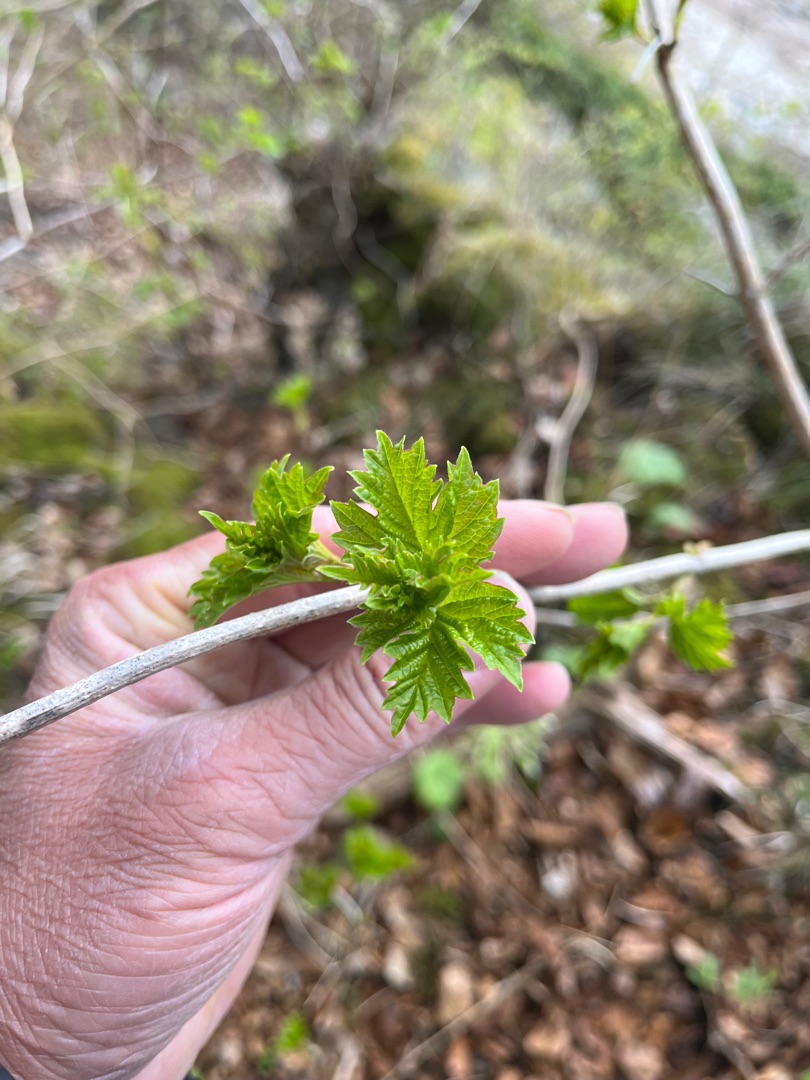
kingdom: Plantae
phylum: Tracheophyta
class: Magnoliopsida
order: Dipsacales
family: Viburnaceae
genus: Viburnum
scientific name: Viburnum opulus
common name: Kvalkved
